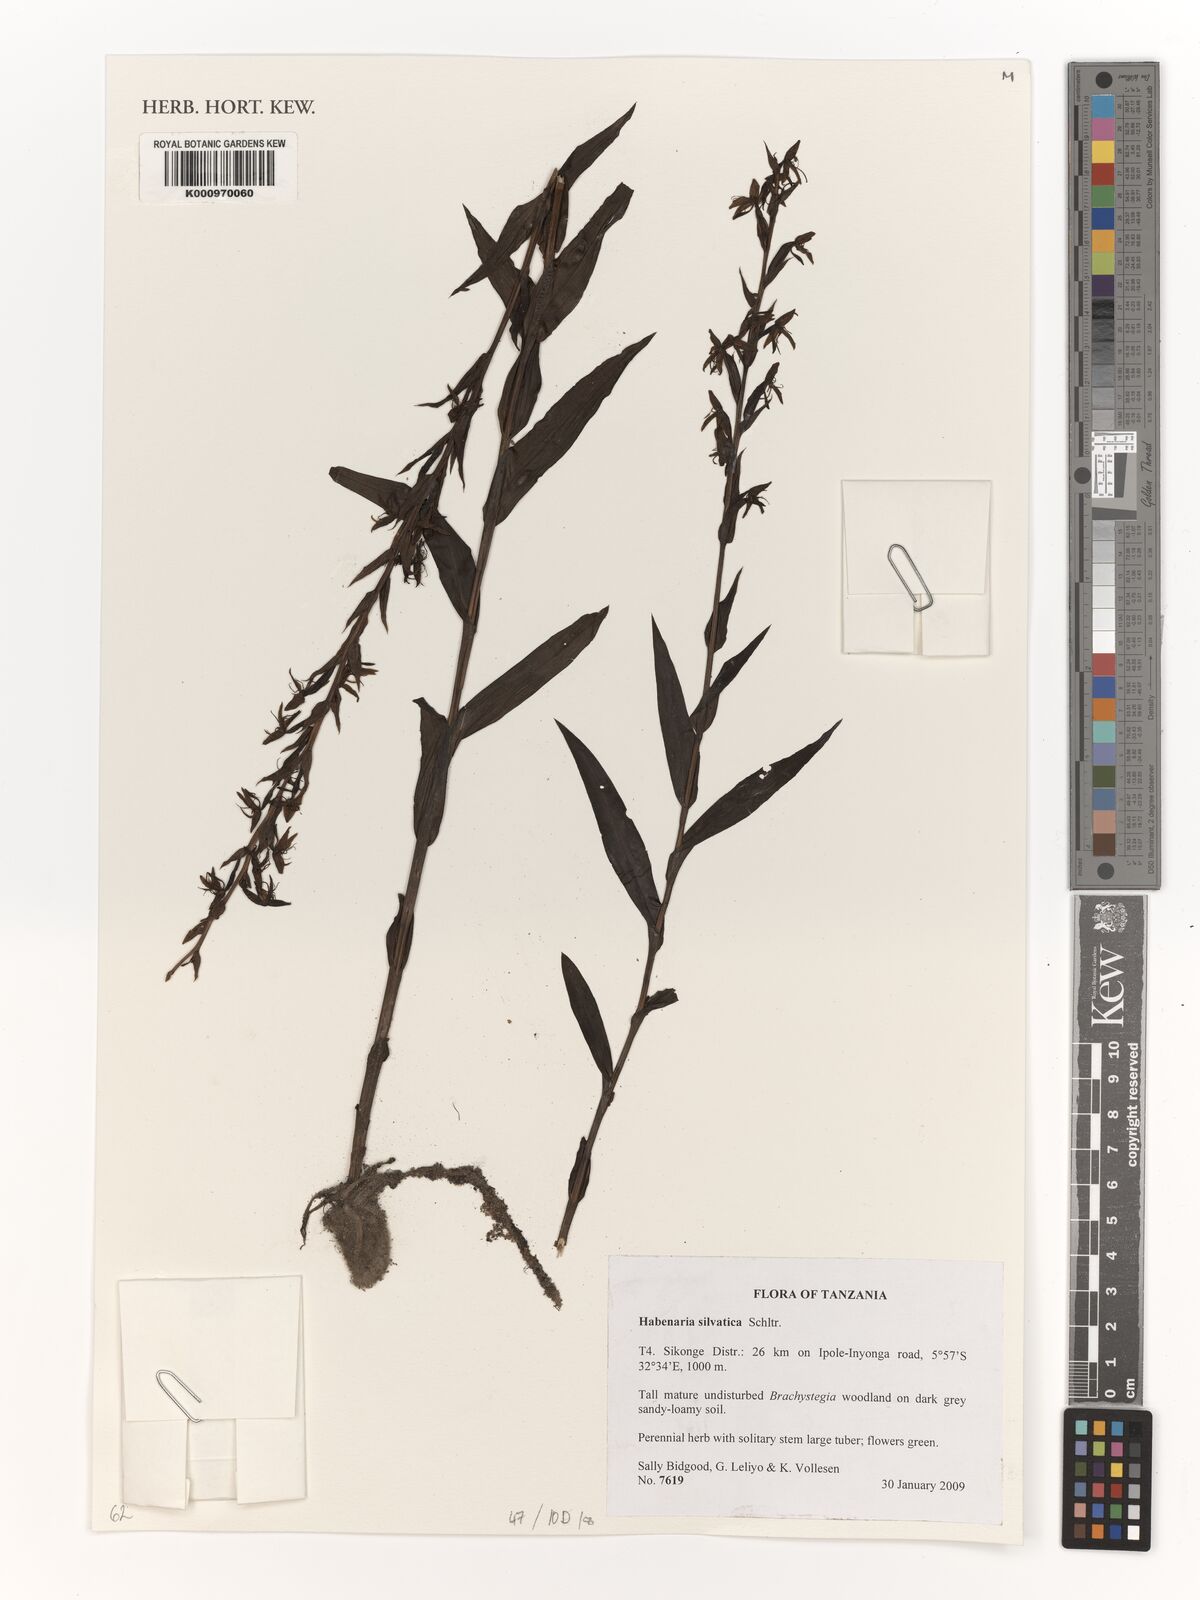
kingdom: Plantae
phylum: Tracheophyta
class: Liliopsida
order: Asparagales
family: Orchidaceae
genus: Habenaria
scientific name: Habenaria silvatica
